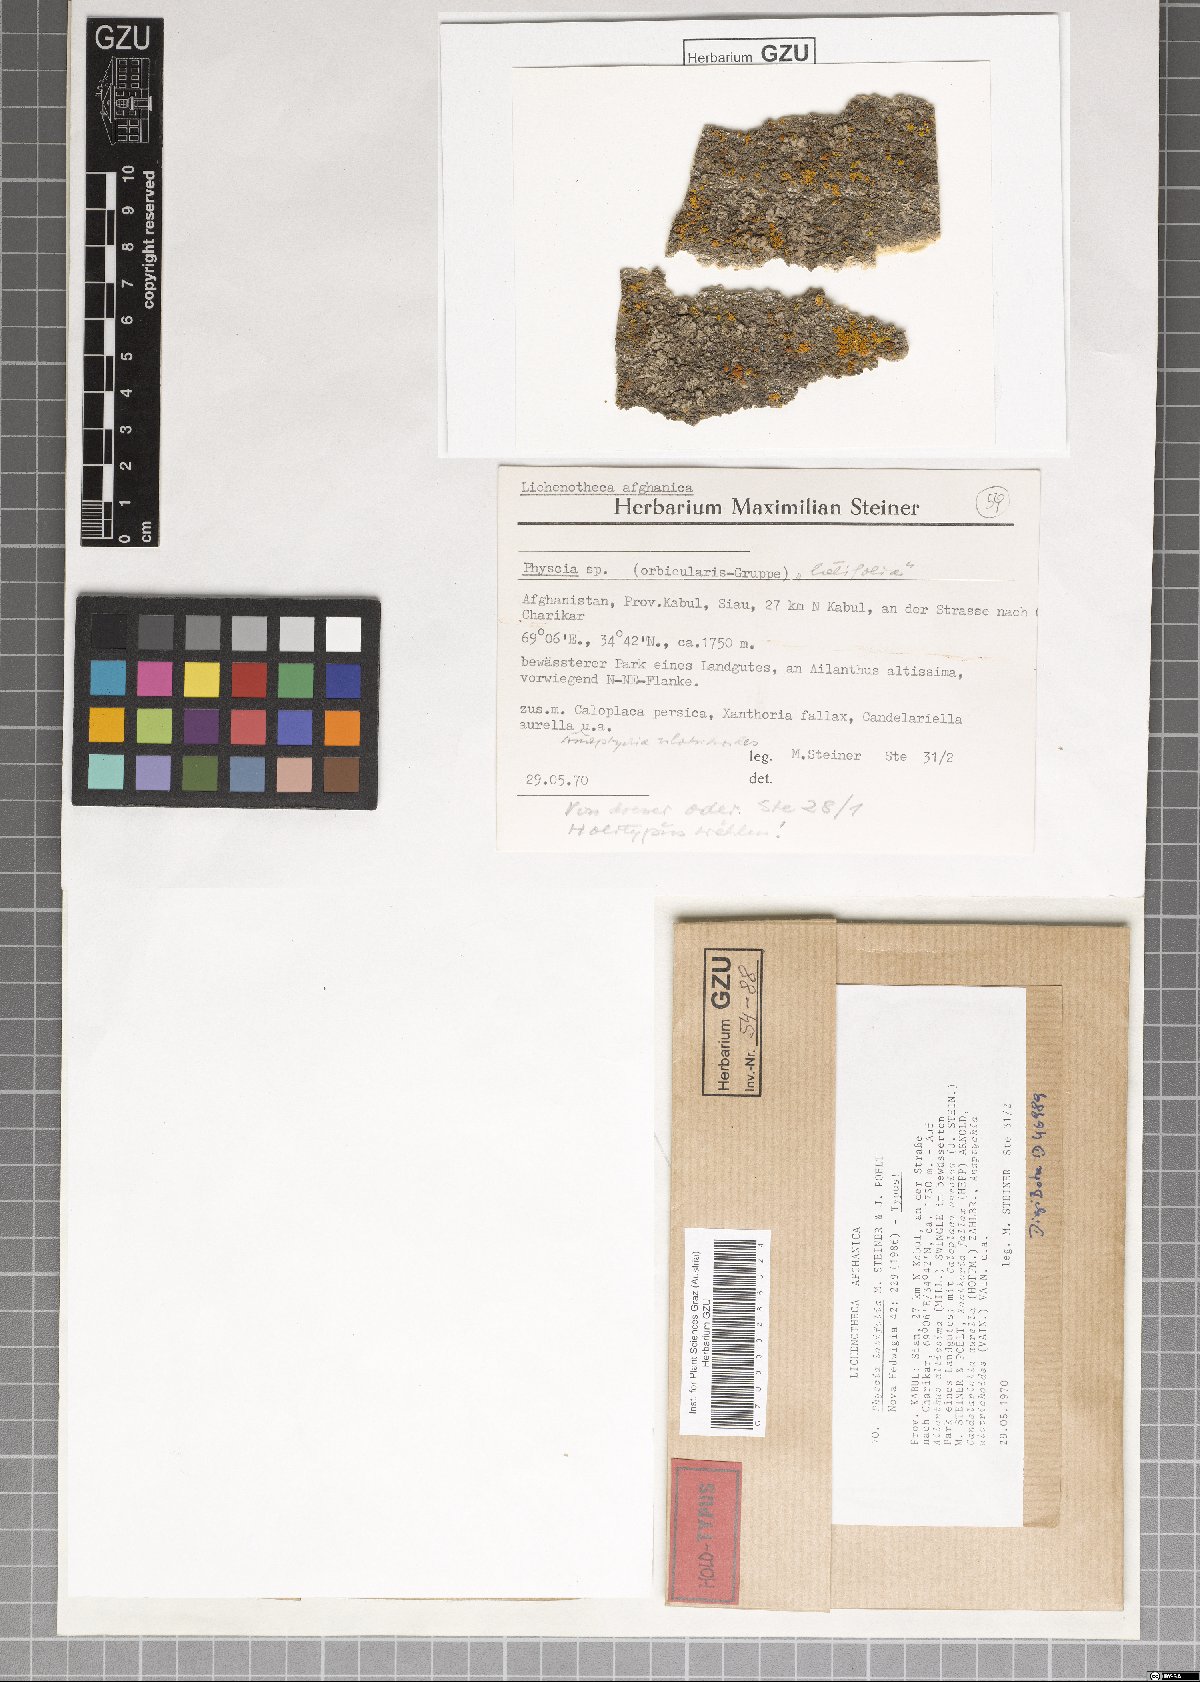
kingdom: Fungi
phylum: Ascomycota
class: Lecanoromycetes
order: Caliciales
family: Physciaceae
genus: Physcia
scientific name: Physcia
